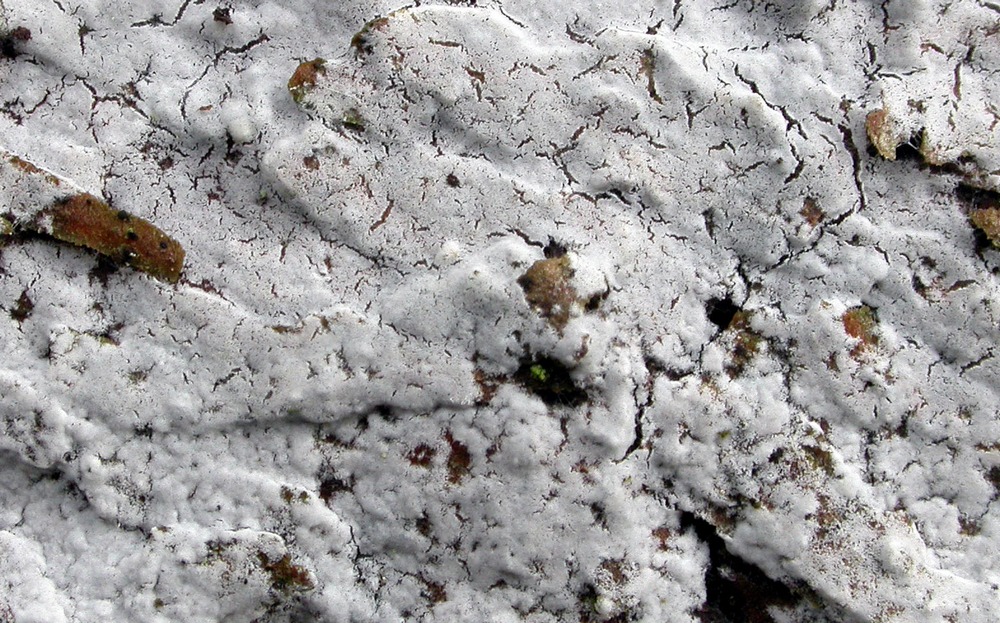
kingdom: Fungi
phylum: Basidiomycota
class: Agaricomycetes
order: Atheliales
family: Atheliaceae
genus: Athelia
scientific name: Athelia decipiens
